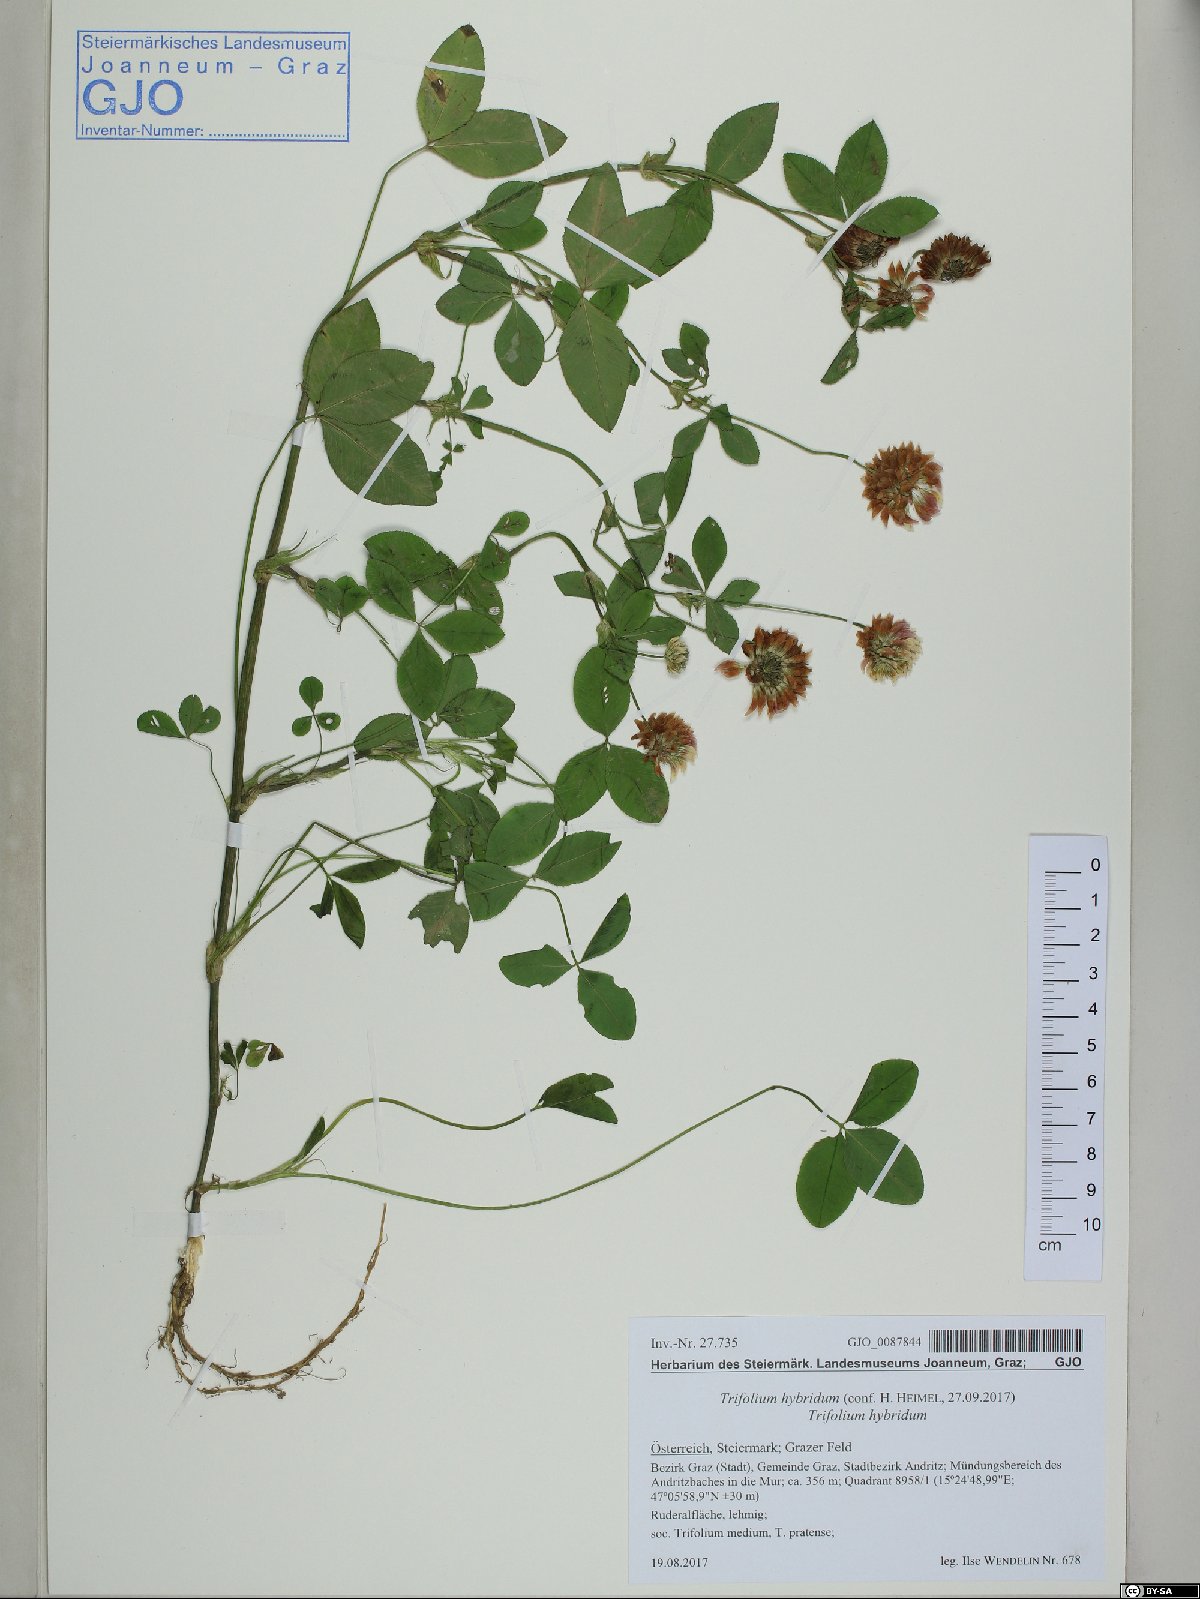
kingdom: Plantae
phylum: Tracheophyta
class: Magnoliopsida
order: Fabales
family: Fabaceae
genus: Trifolium
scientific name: Trifolium hybridum
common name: Alsike clover
